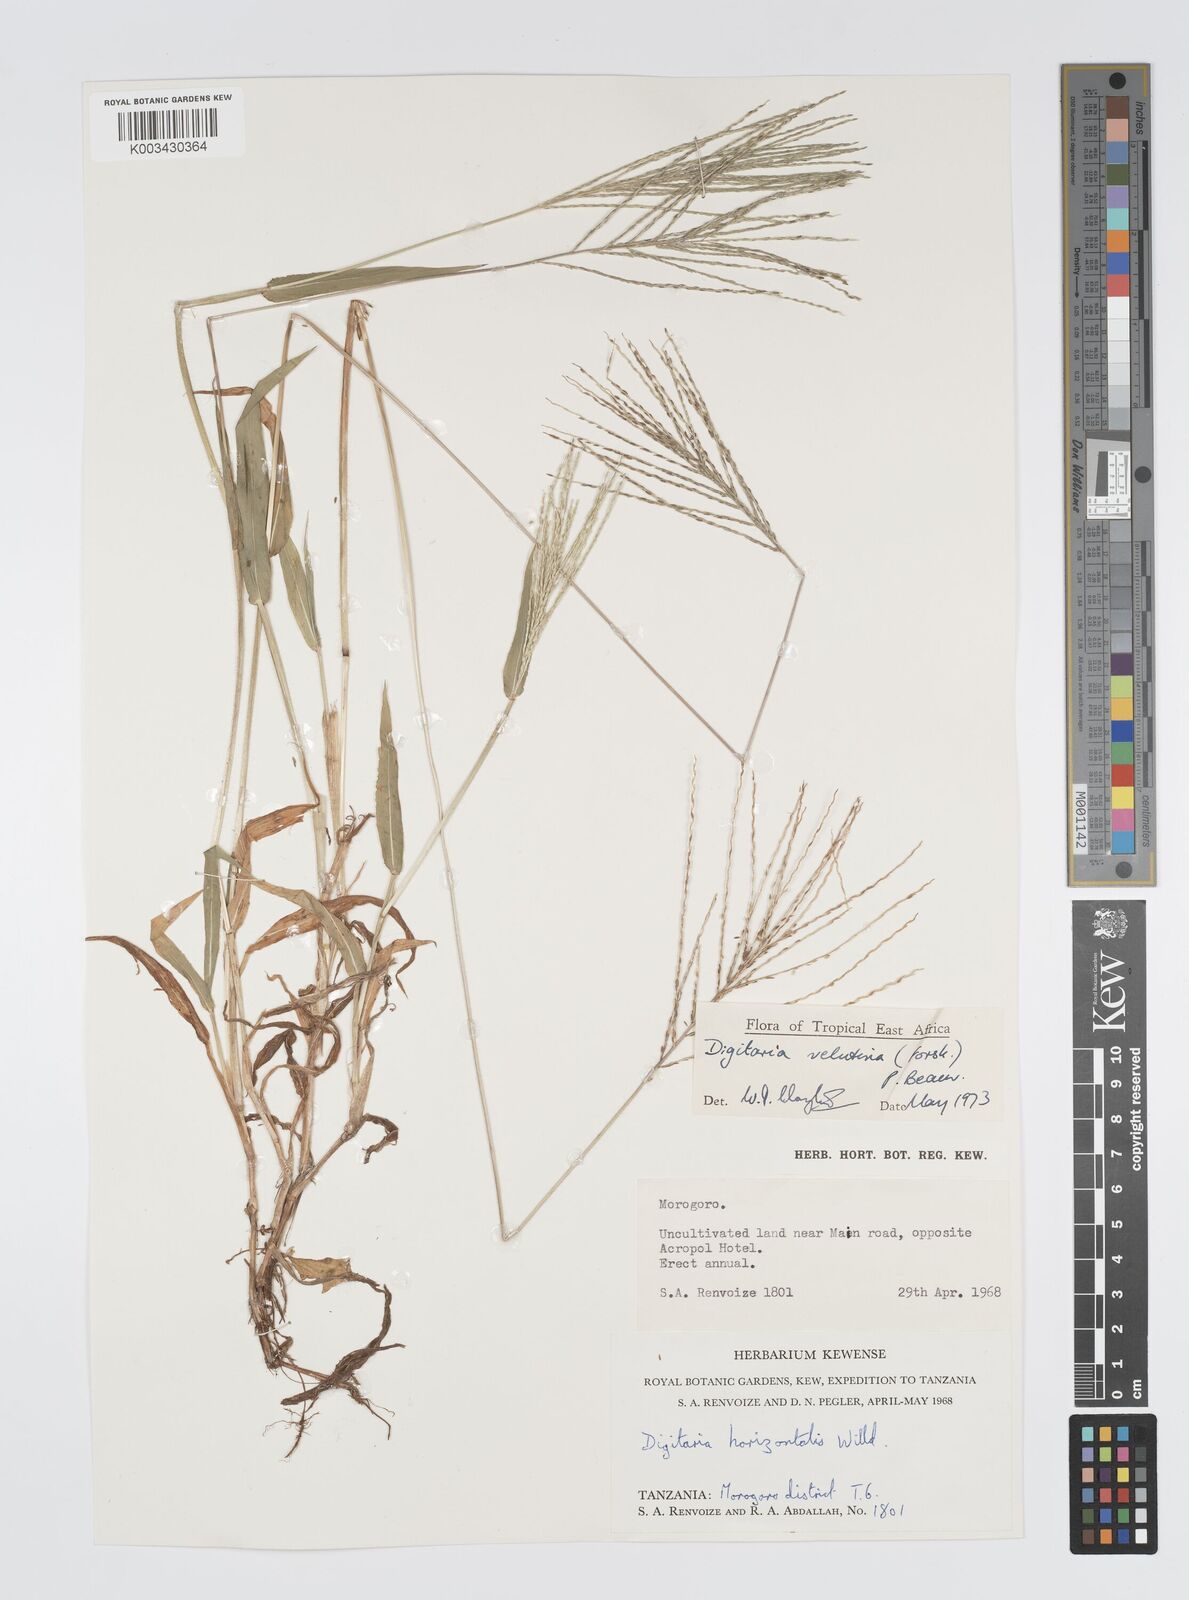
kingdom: Plantae
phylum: Tracheophyta
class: Liliopsida
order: Poales
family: Poaceae
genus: Digitaria
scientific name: Digitaria velutina
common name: Long-plume finger grass
